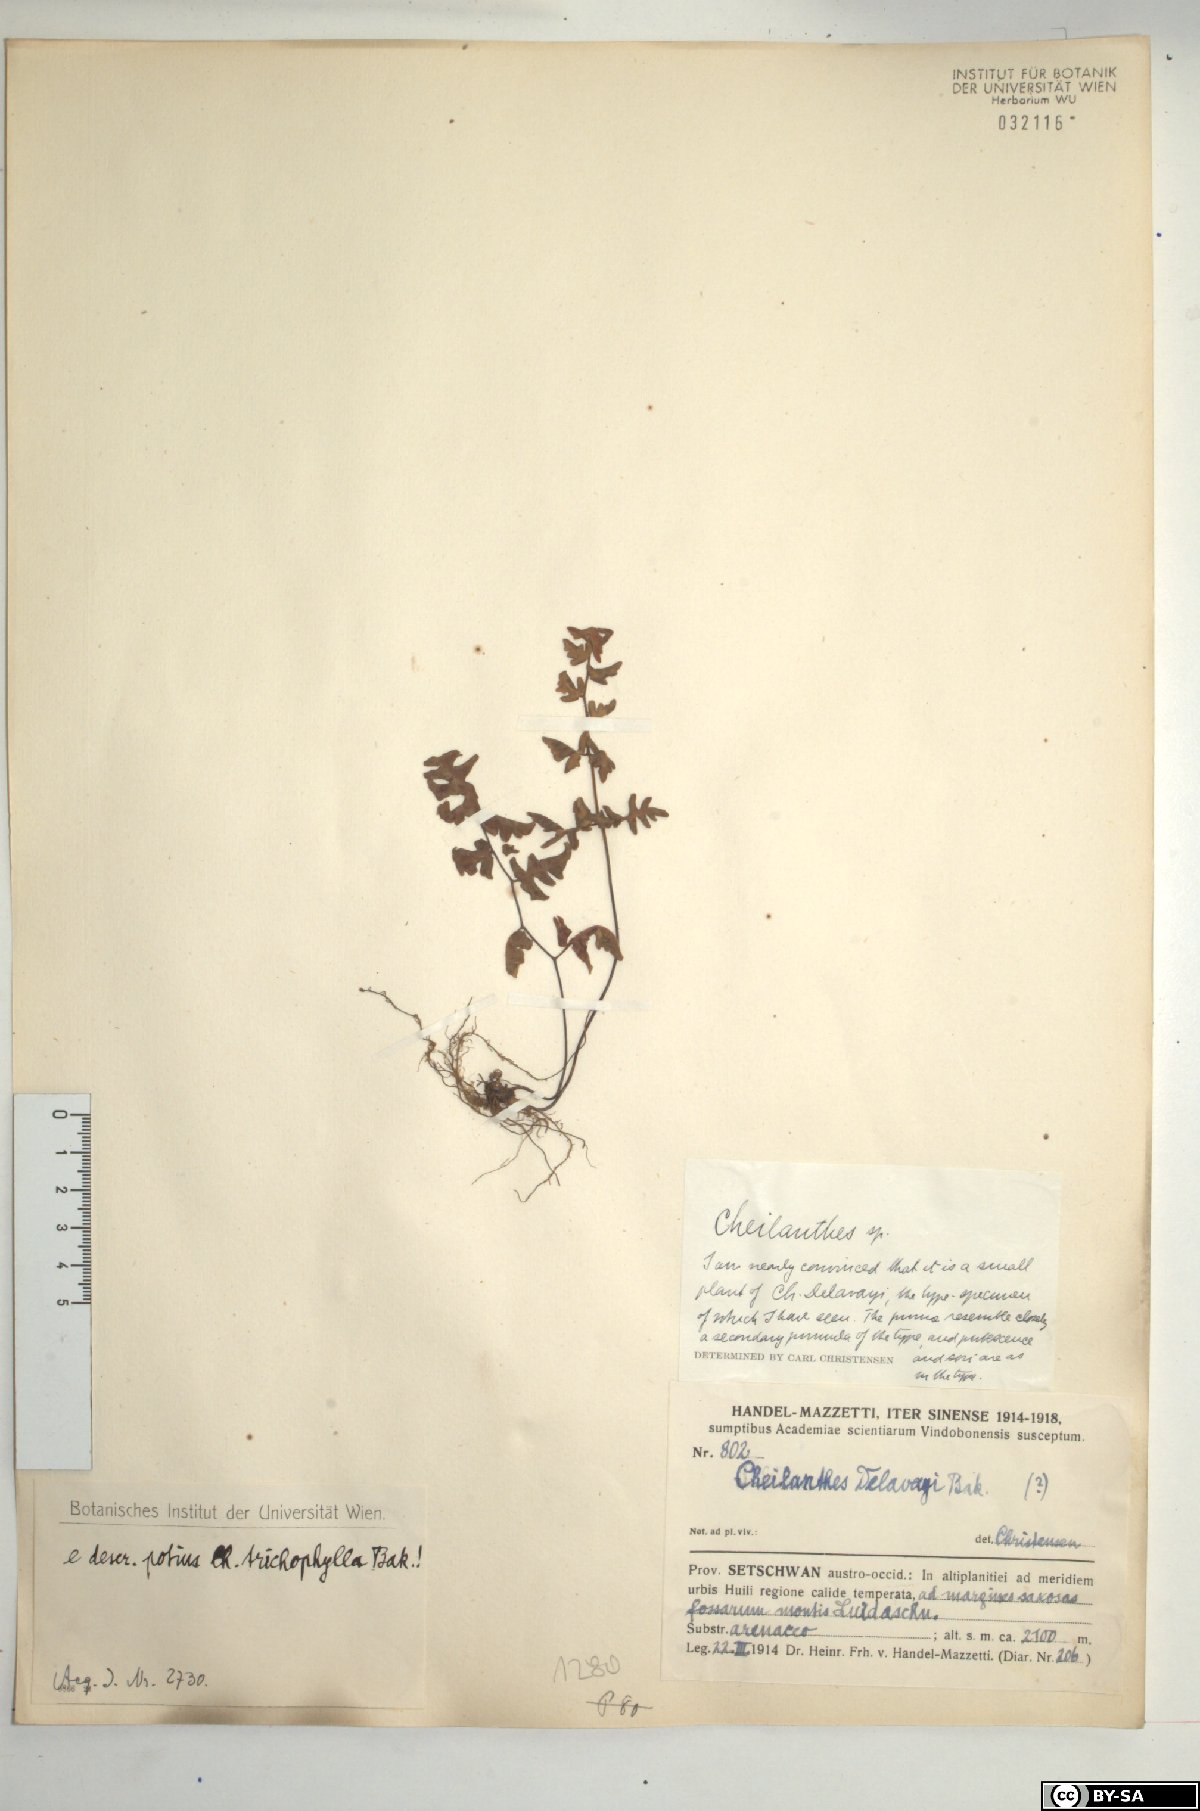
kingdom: Plantae
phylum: Tracheophyta
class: Polypodiopsida
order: Polypodiales
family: Pteridaceae
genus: Oeosporangium
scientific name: Oeosporangium trichophyllum
